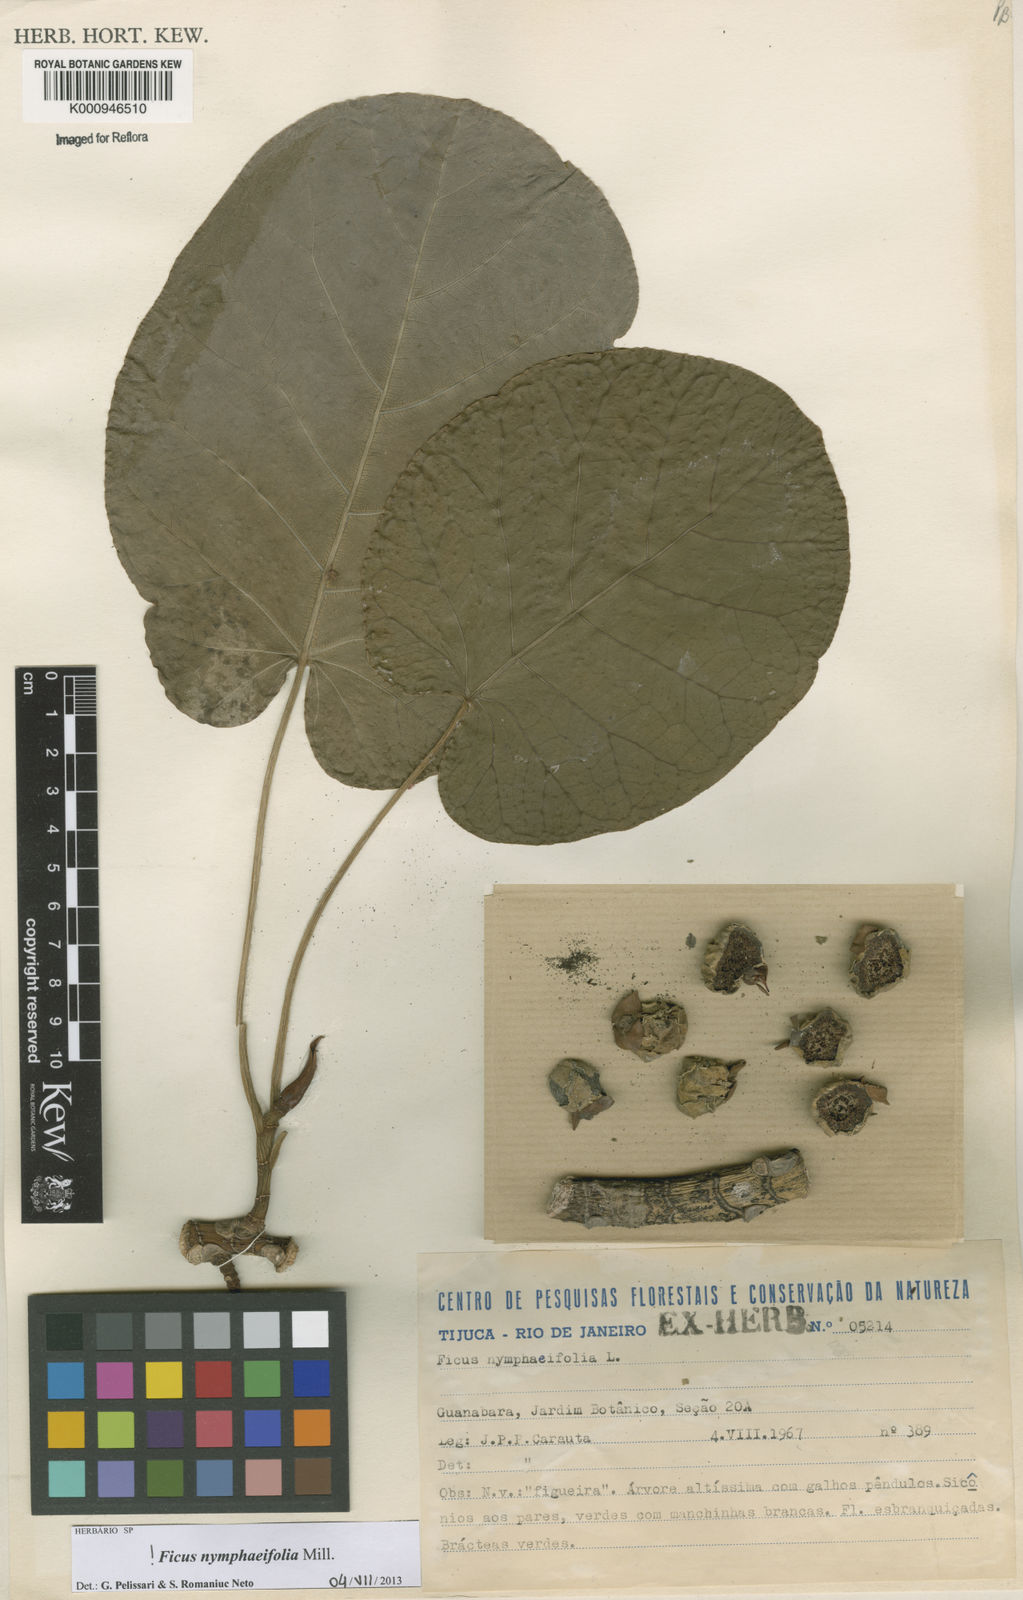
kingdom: Plantae
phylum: Tracheophyta
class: Magnoliopsida
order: Rosales
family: Moraceae
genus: Ficus
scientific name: Ficus
